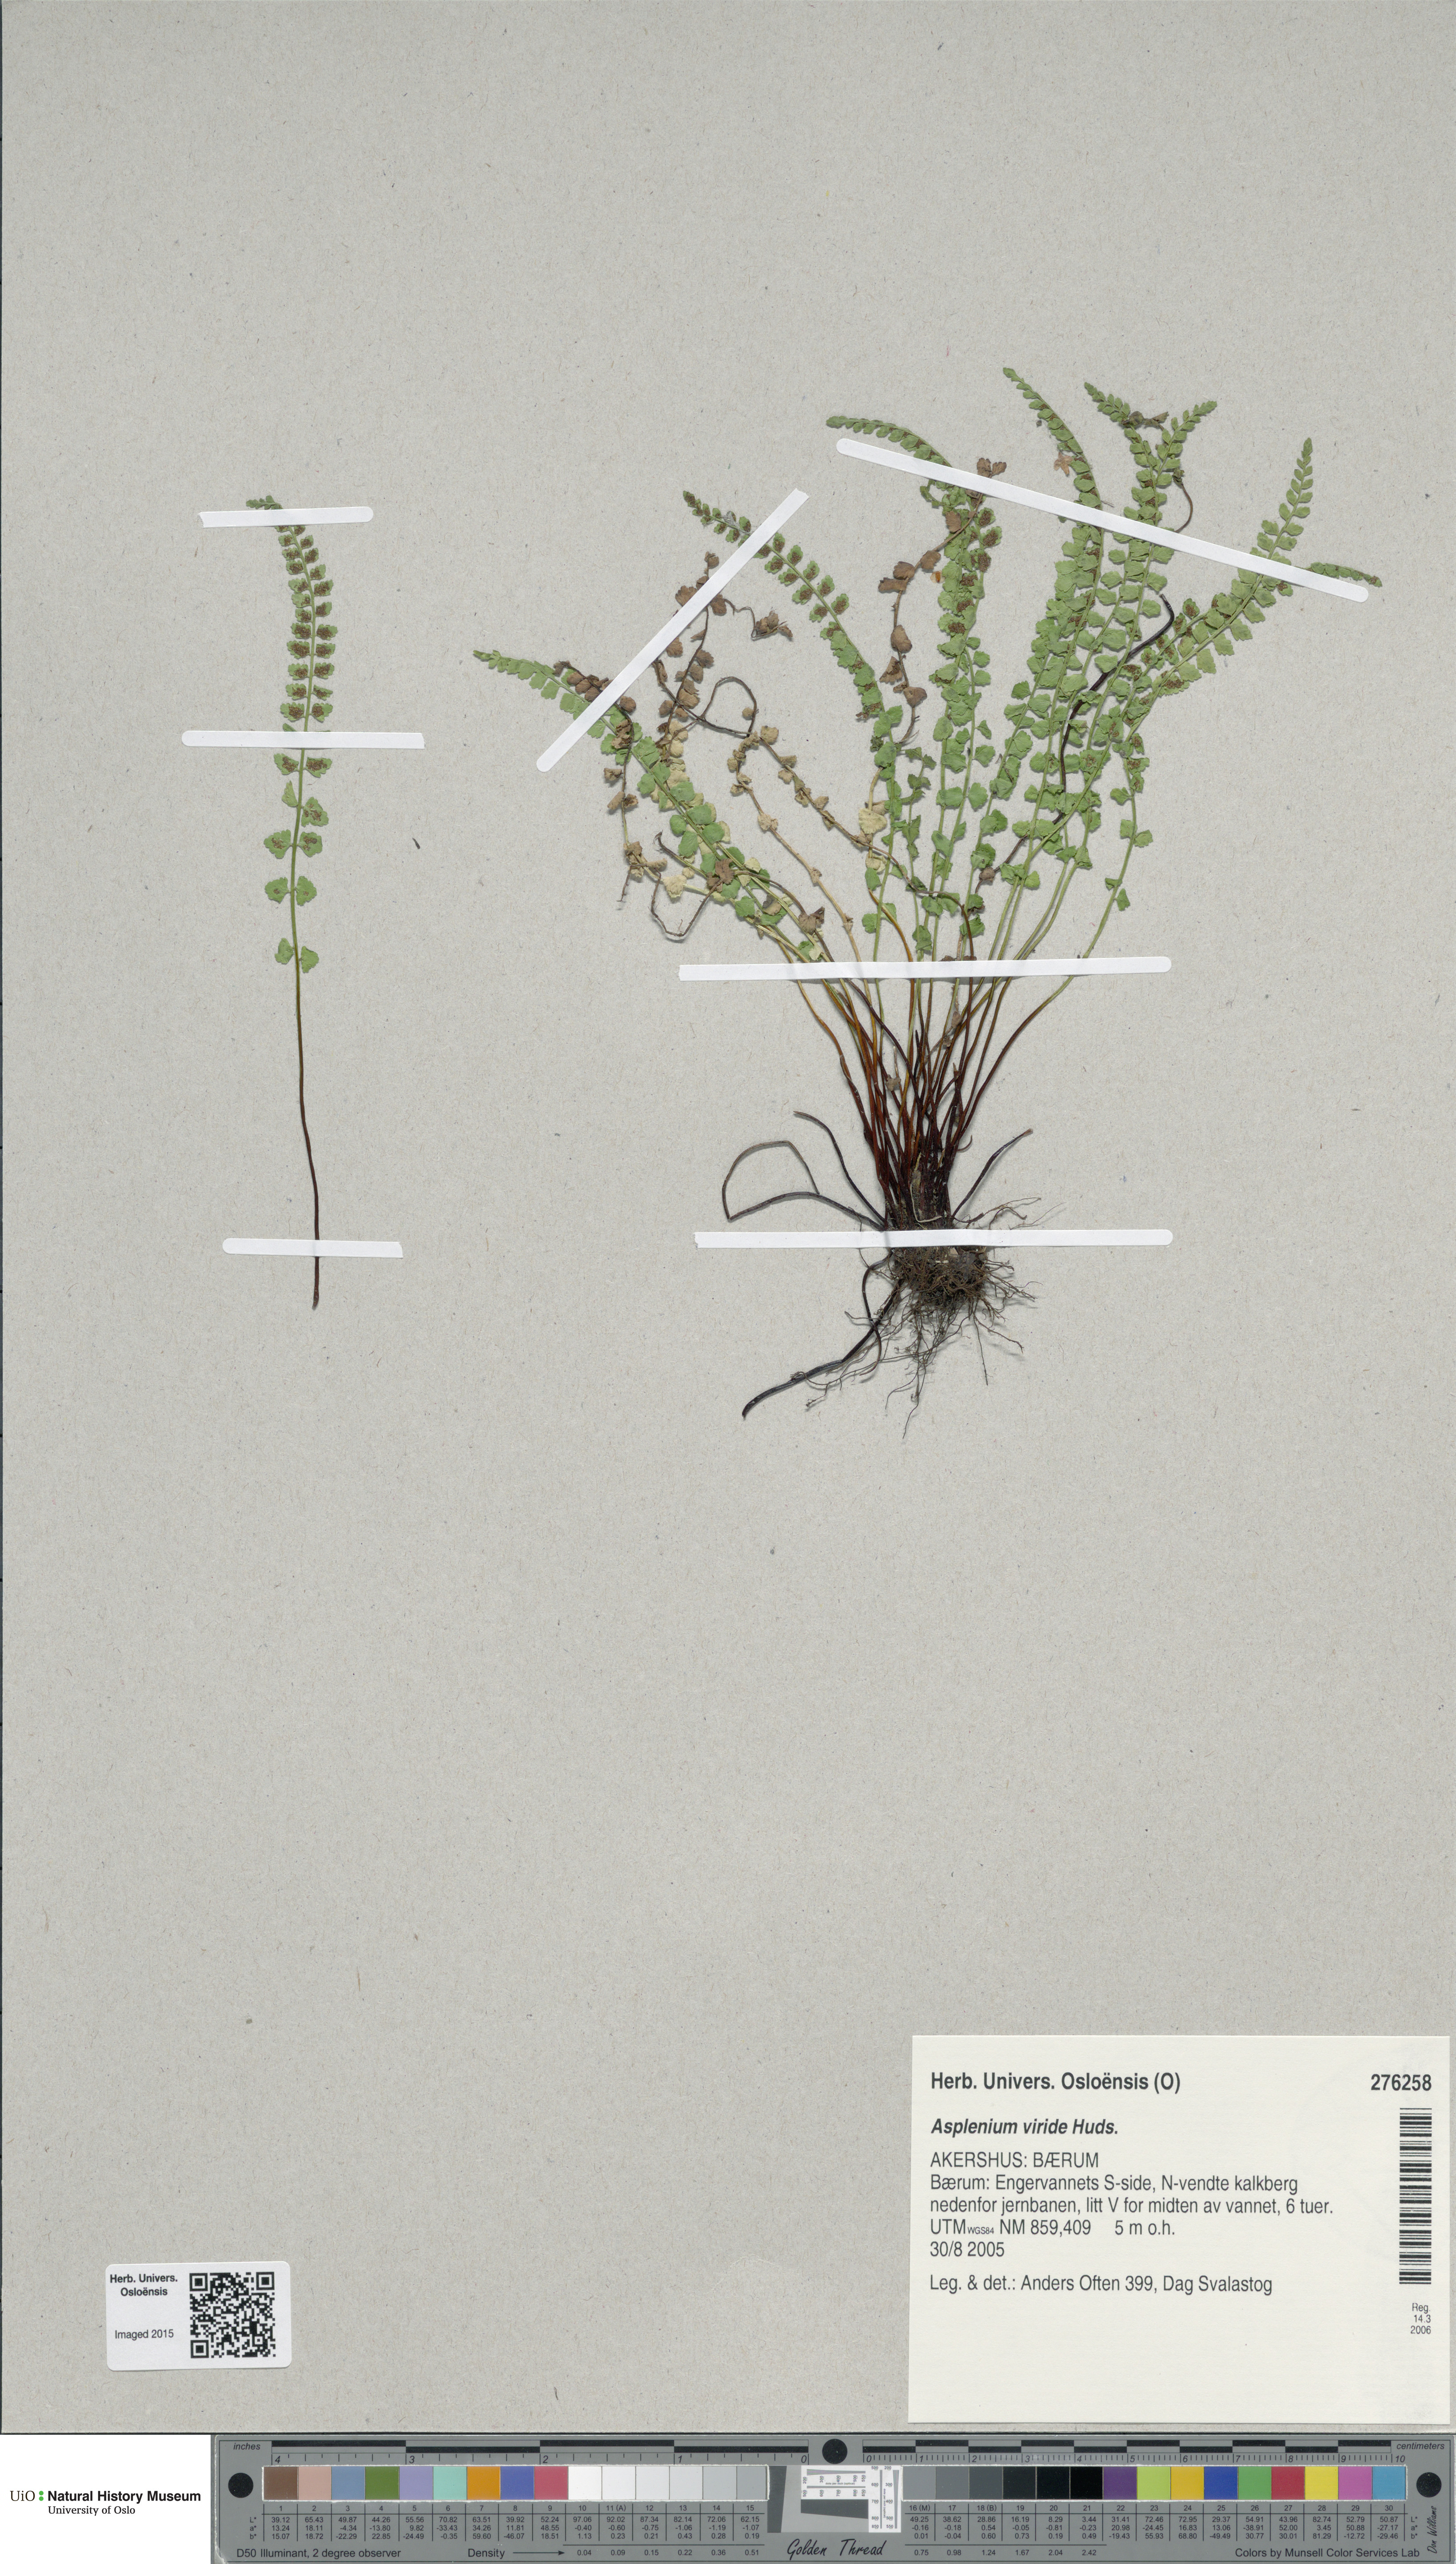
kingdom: Plantae
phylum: Tracheophyta
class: Polypodiopsida
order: Polypodiales
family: Aspleniaceae
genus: Asplenium
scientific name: Asplenium viride
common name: Green spleenwort
